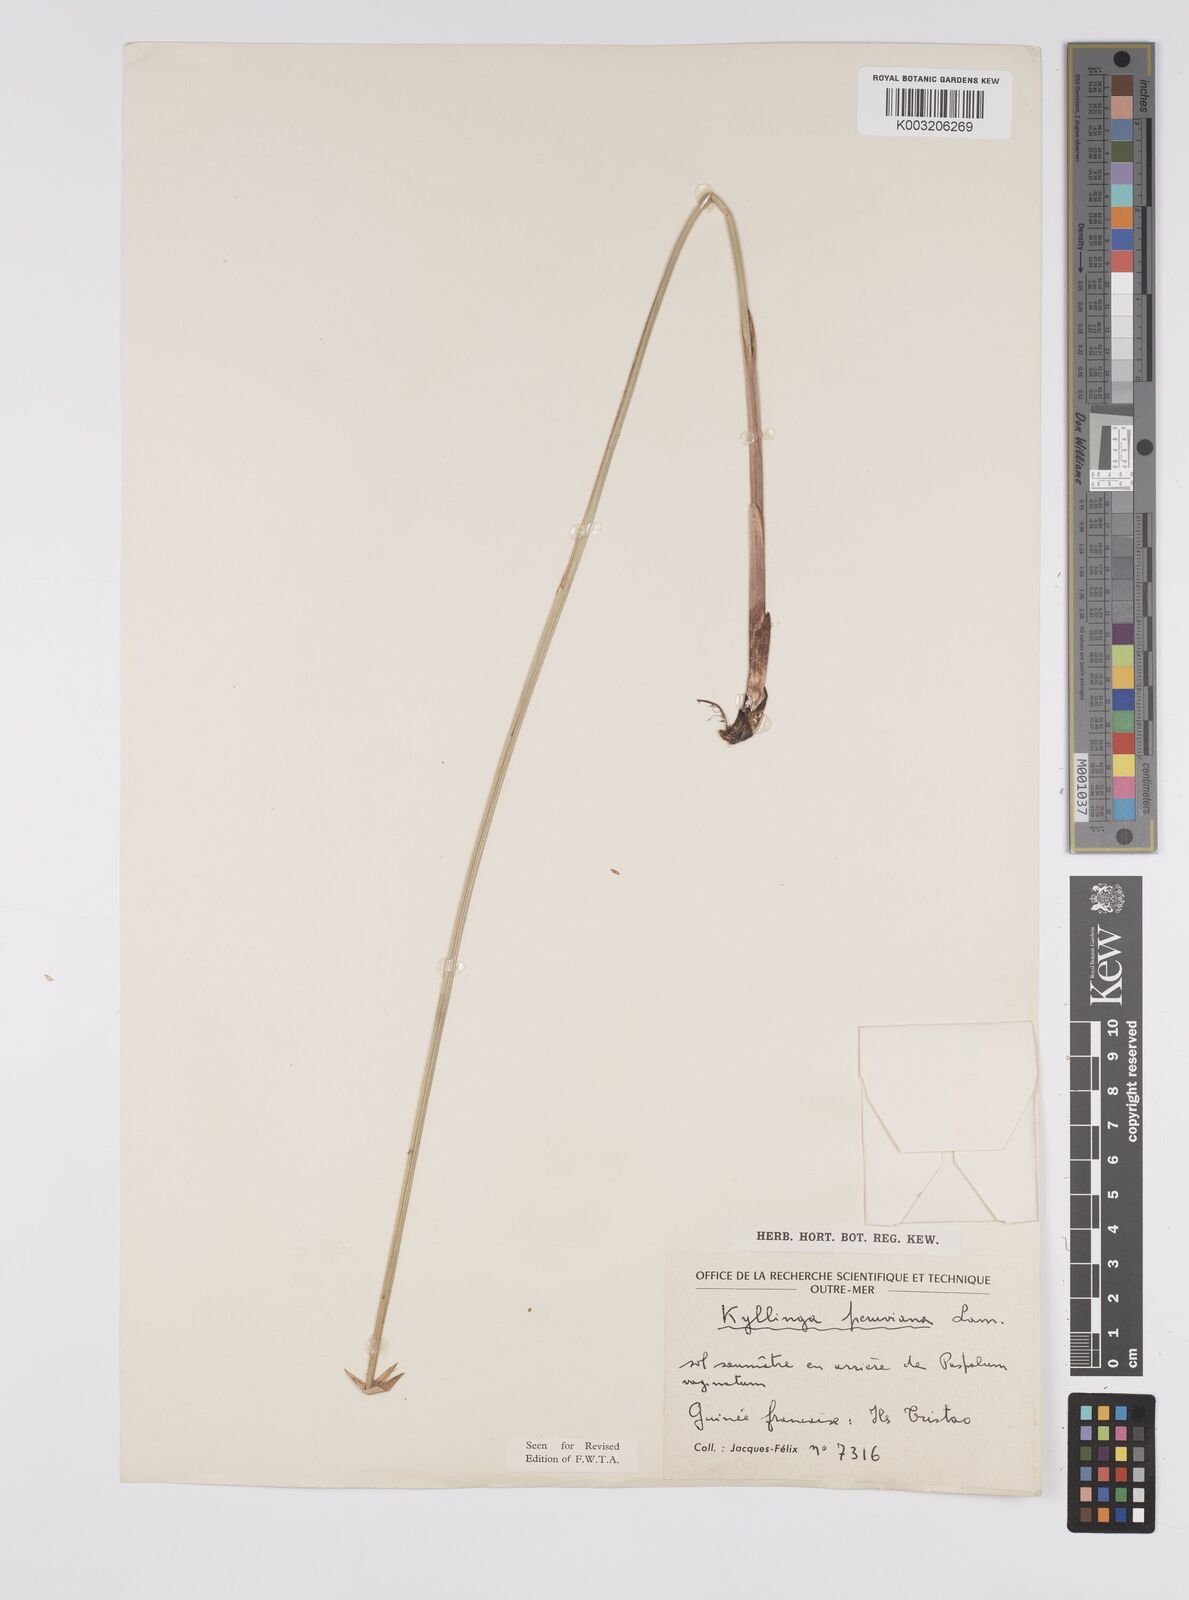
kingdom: Plantae
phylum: Tracheophyta
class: Liliopsida
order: Poales
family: Cyperaceae
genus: Cyperus
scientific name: Cyperus obtusatus
